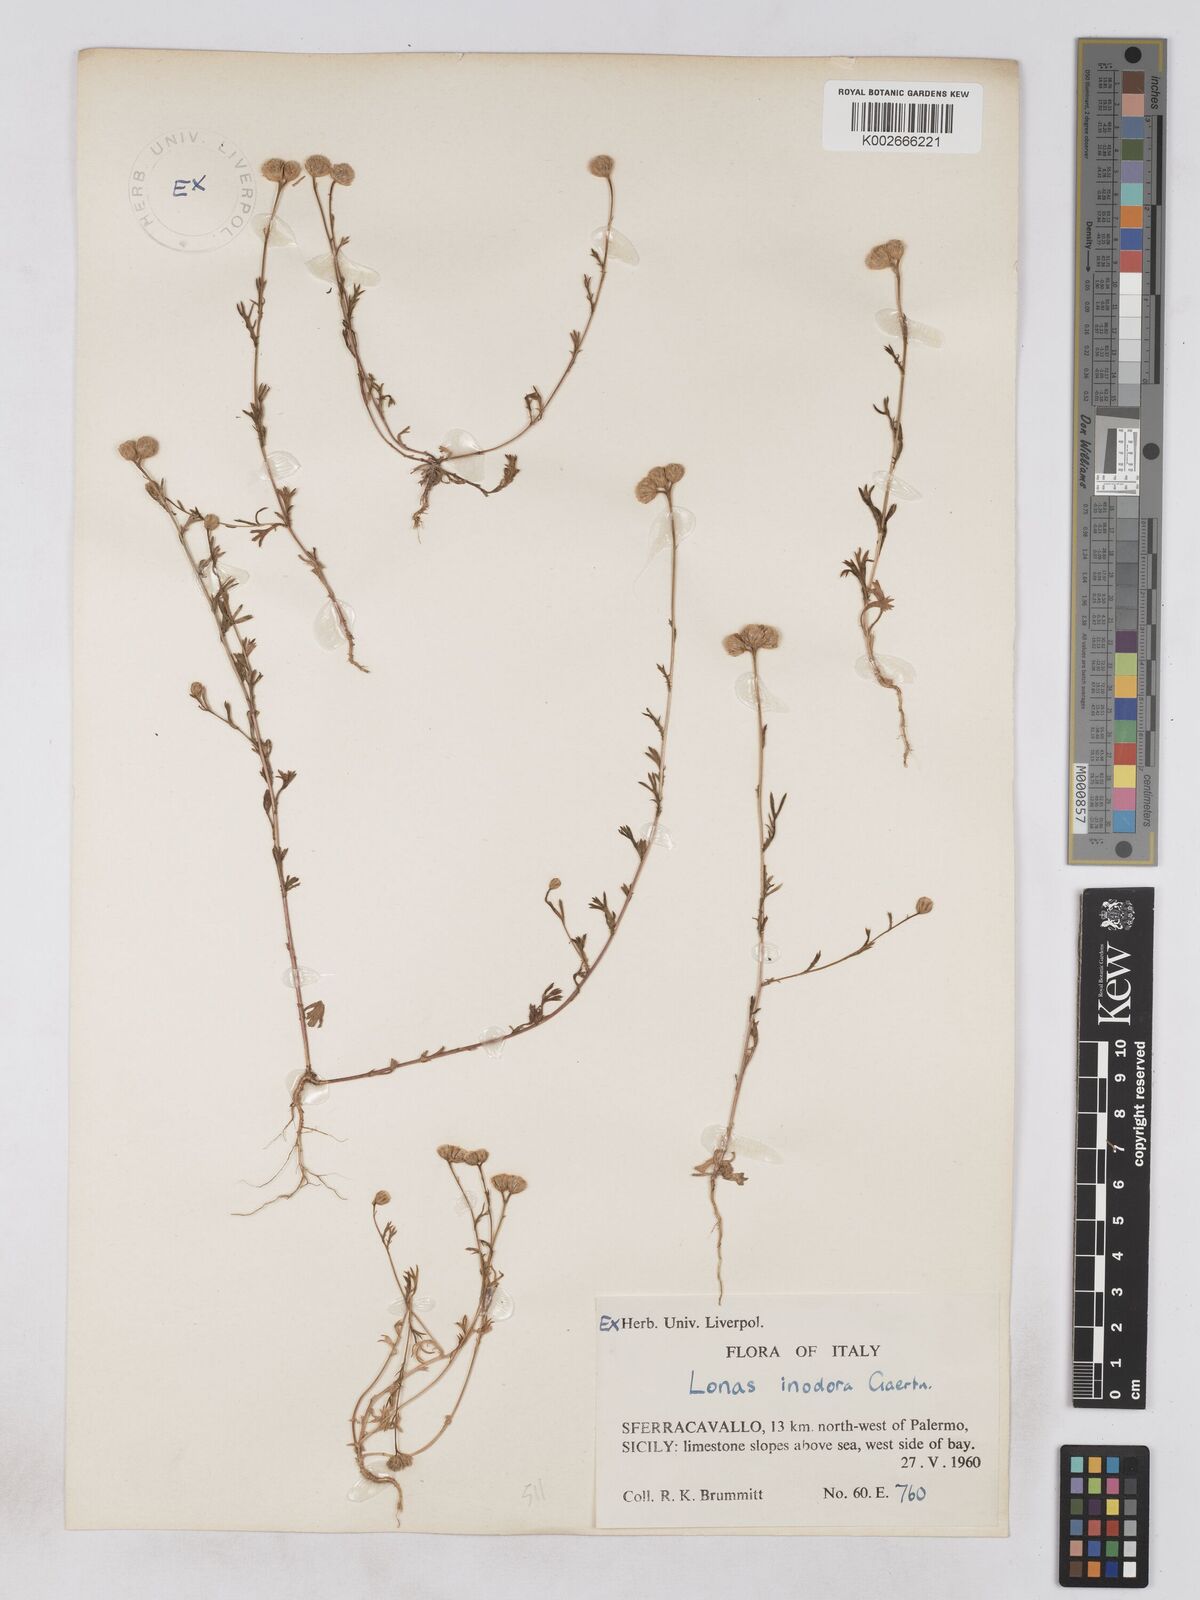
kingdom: Plantae
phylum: Tracheophyta
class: Magnoliopsida
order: Asterales
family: Asteraceae
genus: Lonas
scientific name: Lonas
